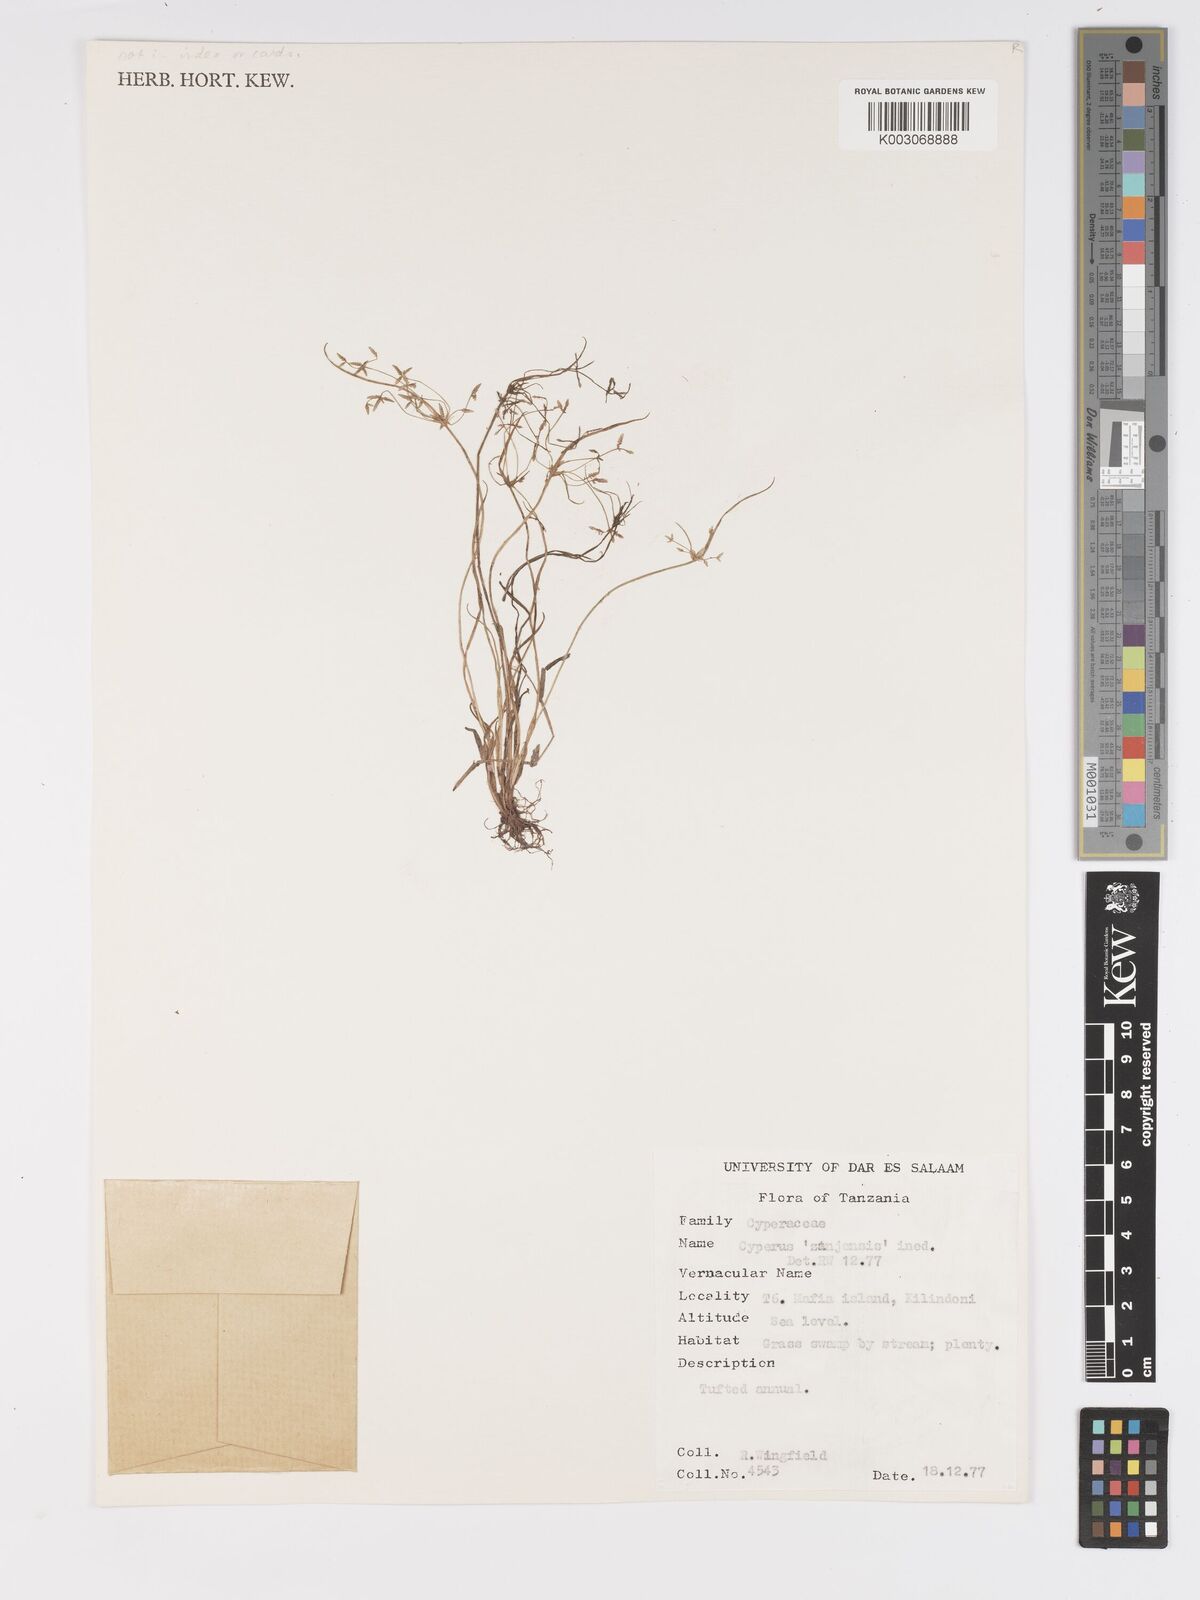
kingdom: Plantae
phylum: Tracheophyta
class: Liliopsida
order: Poales
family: Cyperaceae
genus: Cyperus
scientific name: Cyperus tenuispica
